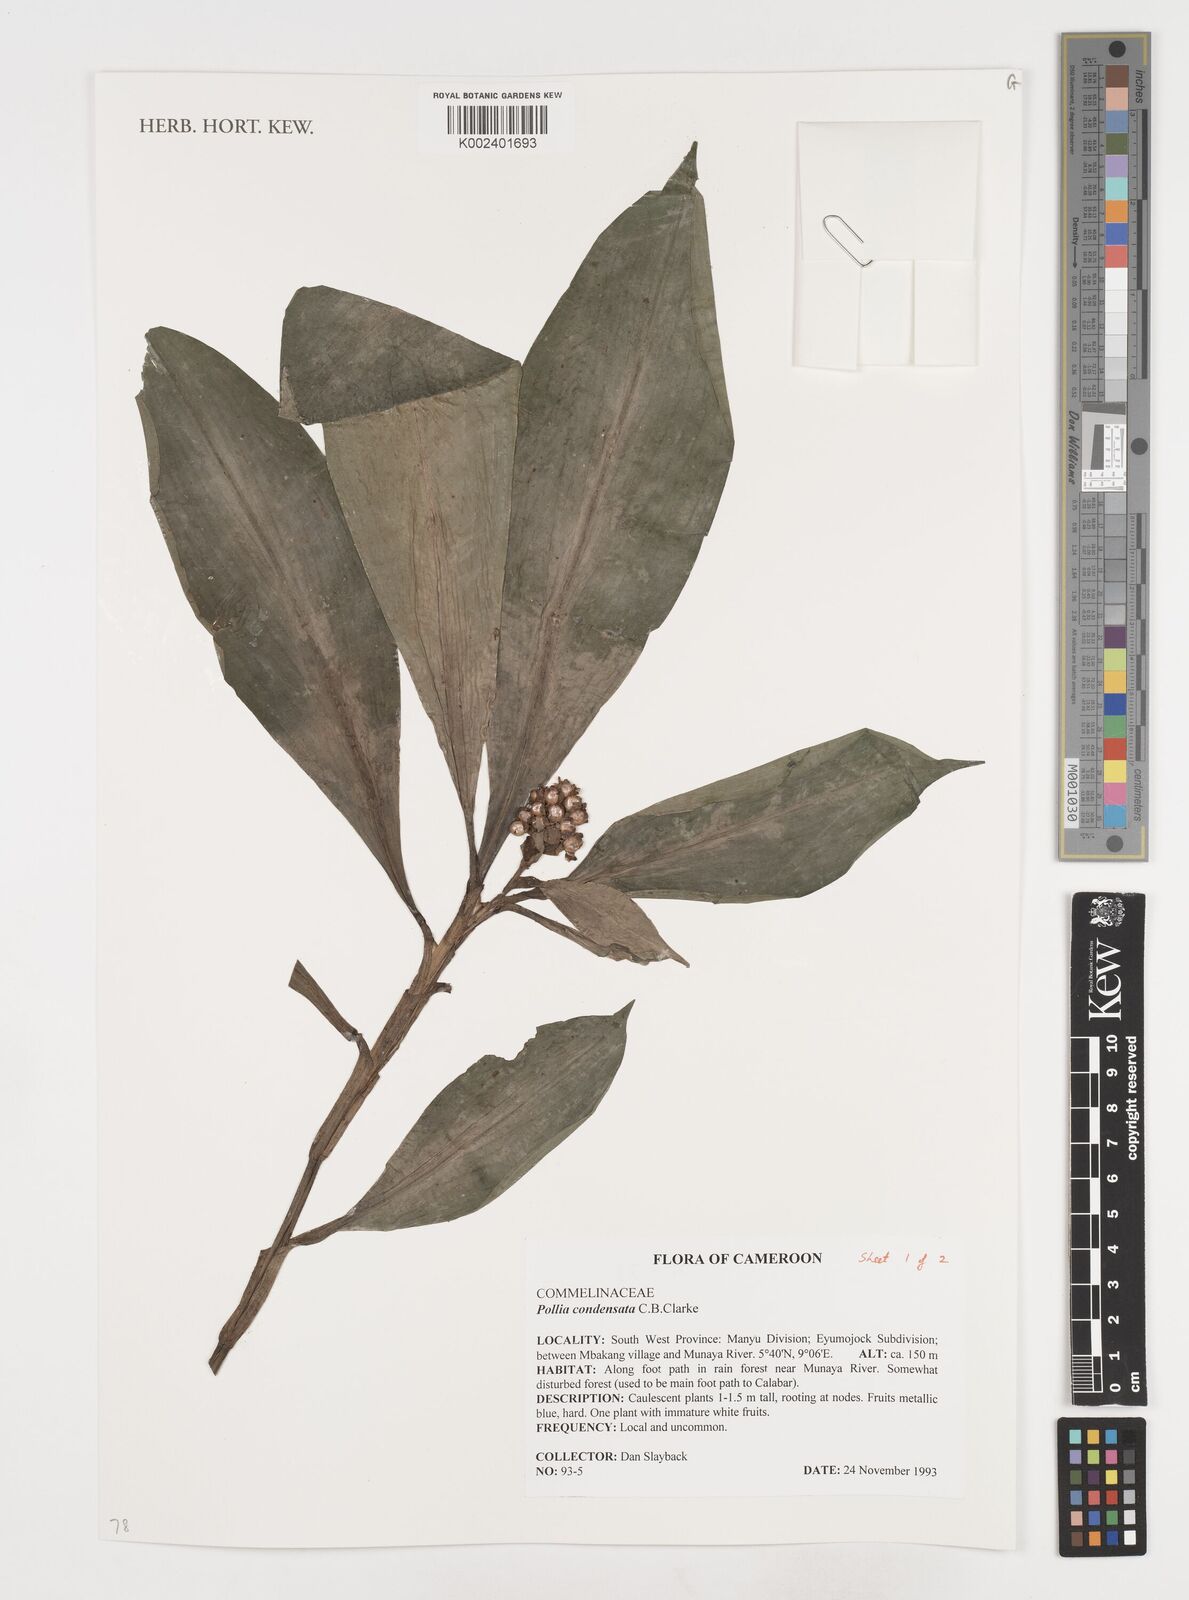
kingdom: Plantae
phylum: Tracheophyta
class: Liliopsida
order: Commelinales
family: Commelinaceae
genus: Pollia
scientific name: Pollia condensata
